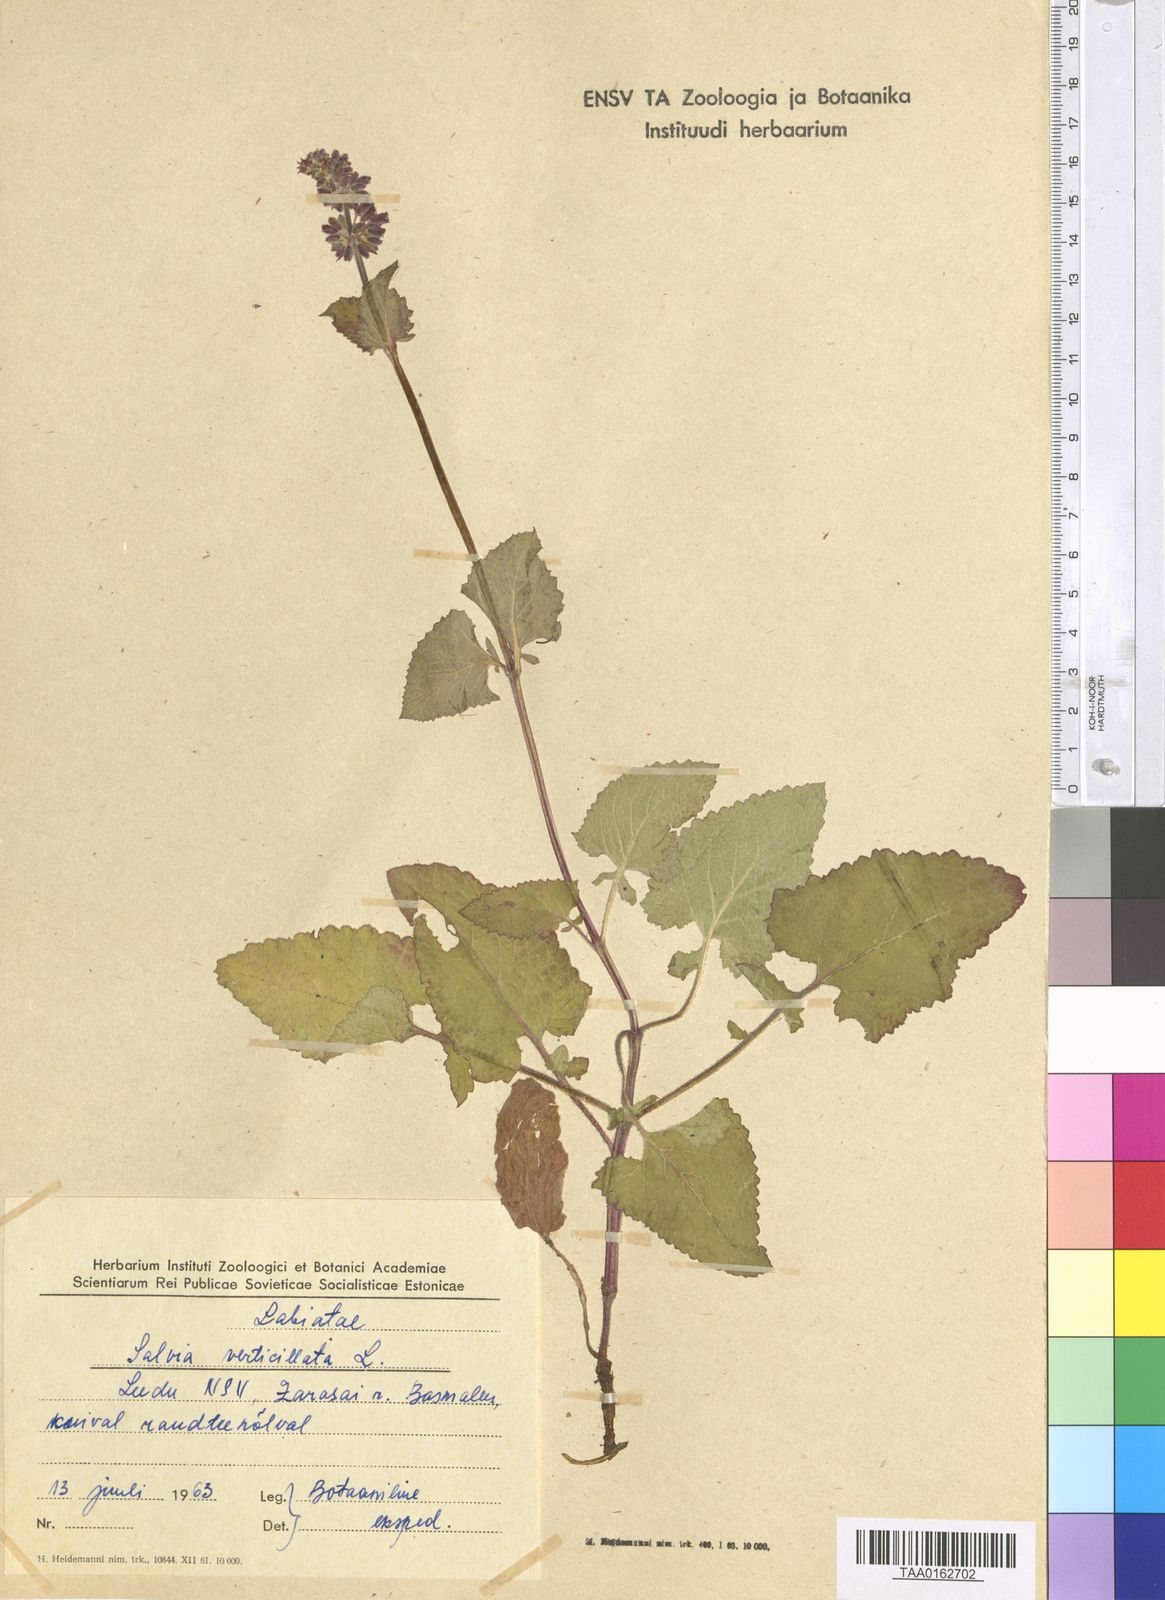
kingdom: Plantae
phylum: Tracheophyta
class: Magnoliopsida
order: Lamiales
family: Lamiaceae
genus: Salvia
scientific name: Salvia verticillata
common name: Whorled clary
